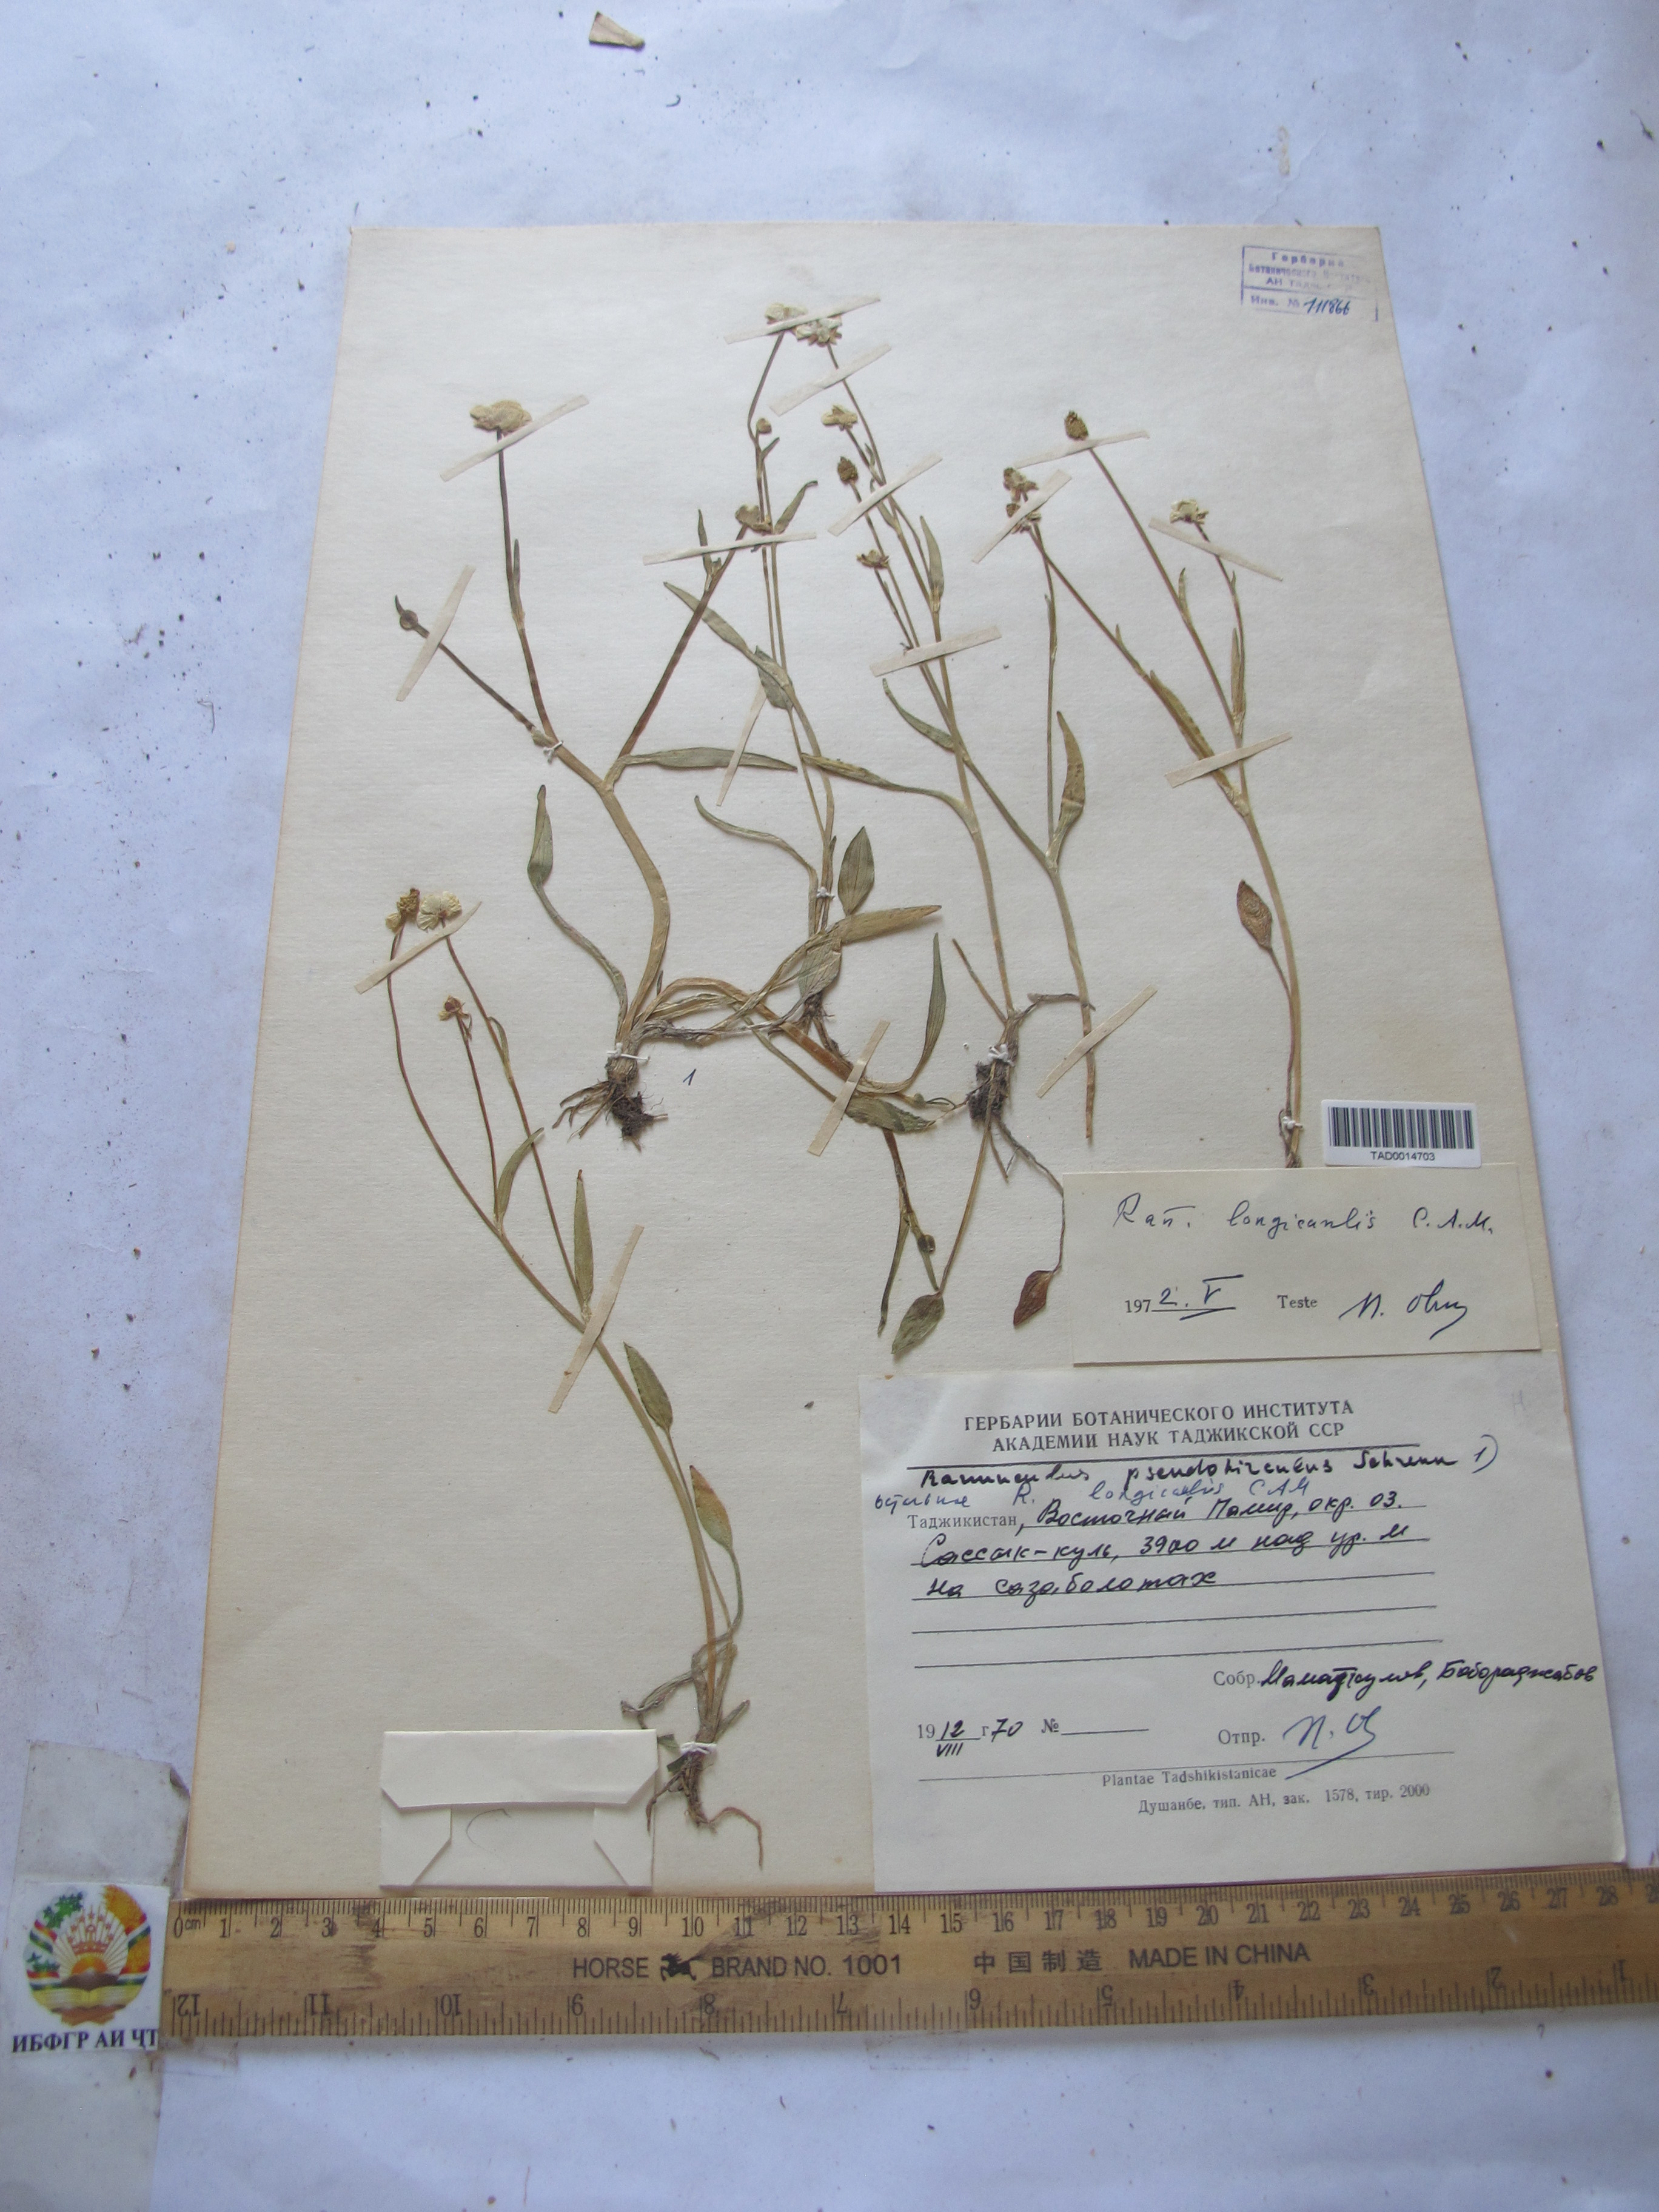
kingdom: Plantae
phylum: Tracheophyta
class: Magnoliopsida
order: Ranunculales
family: Ranunculaceae
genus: Ranunculus
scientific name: Ranunculus pseudohirculus
